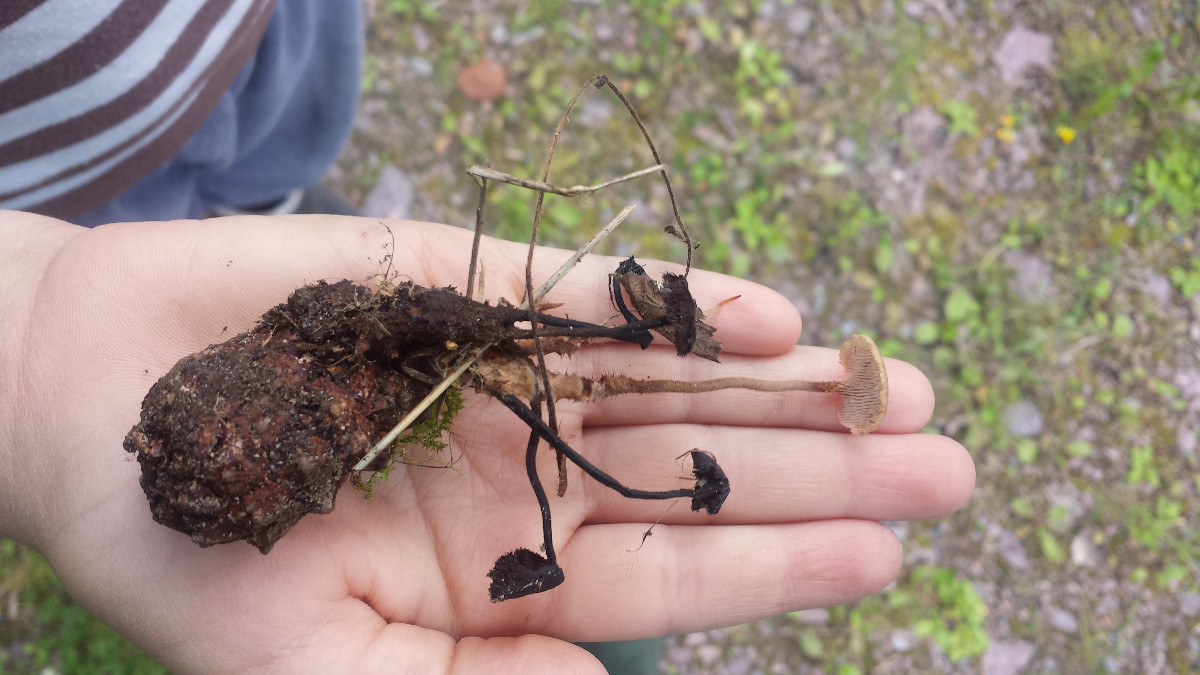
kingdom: Fungi
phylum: Basidiomycota
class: Agaricomycetes
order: Russulales
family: Auriscalpiaceae
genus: Auriscalpium
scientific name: Auriscalpium vulgare
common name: koglepigsvamp
